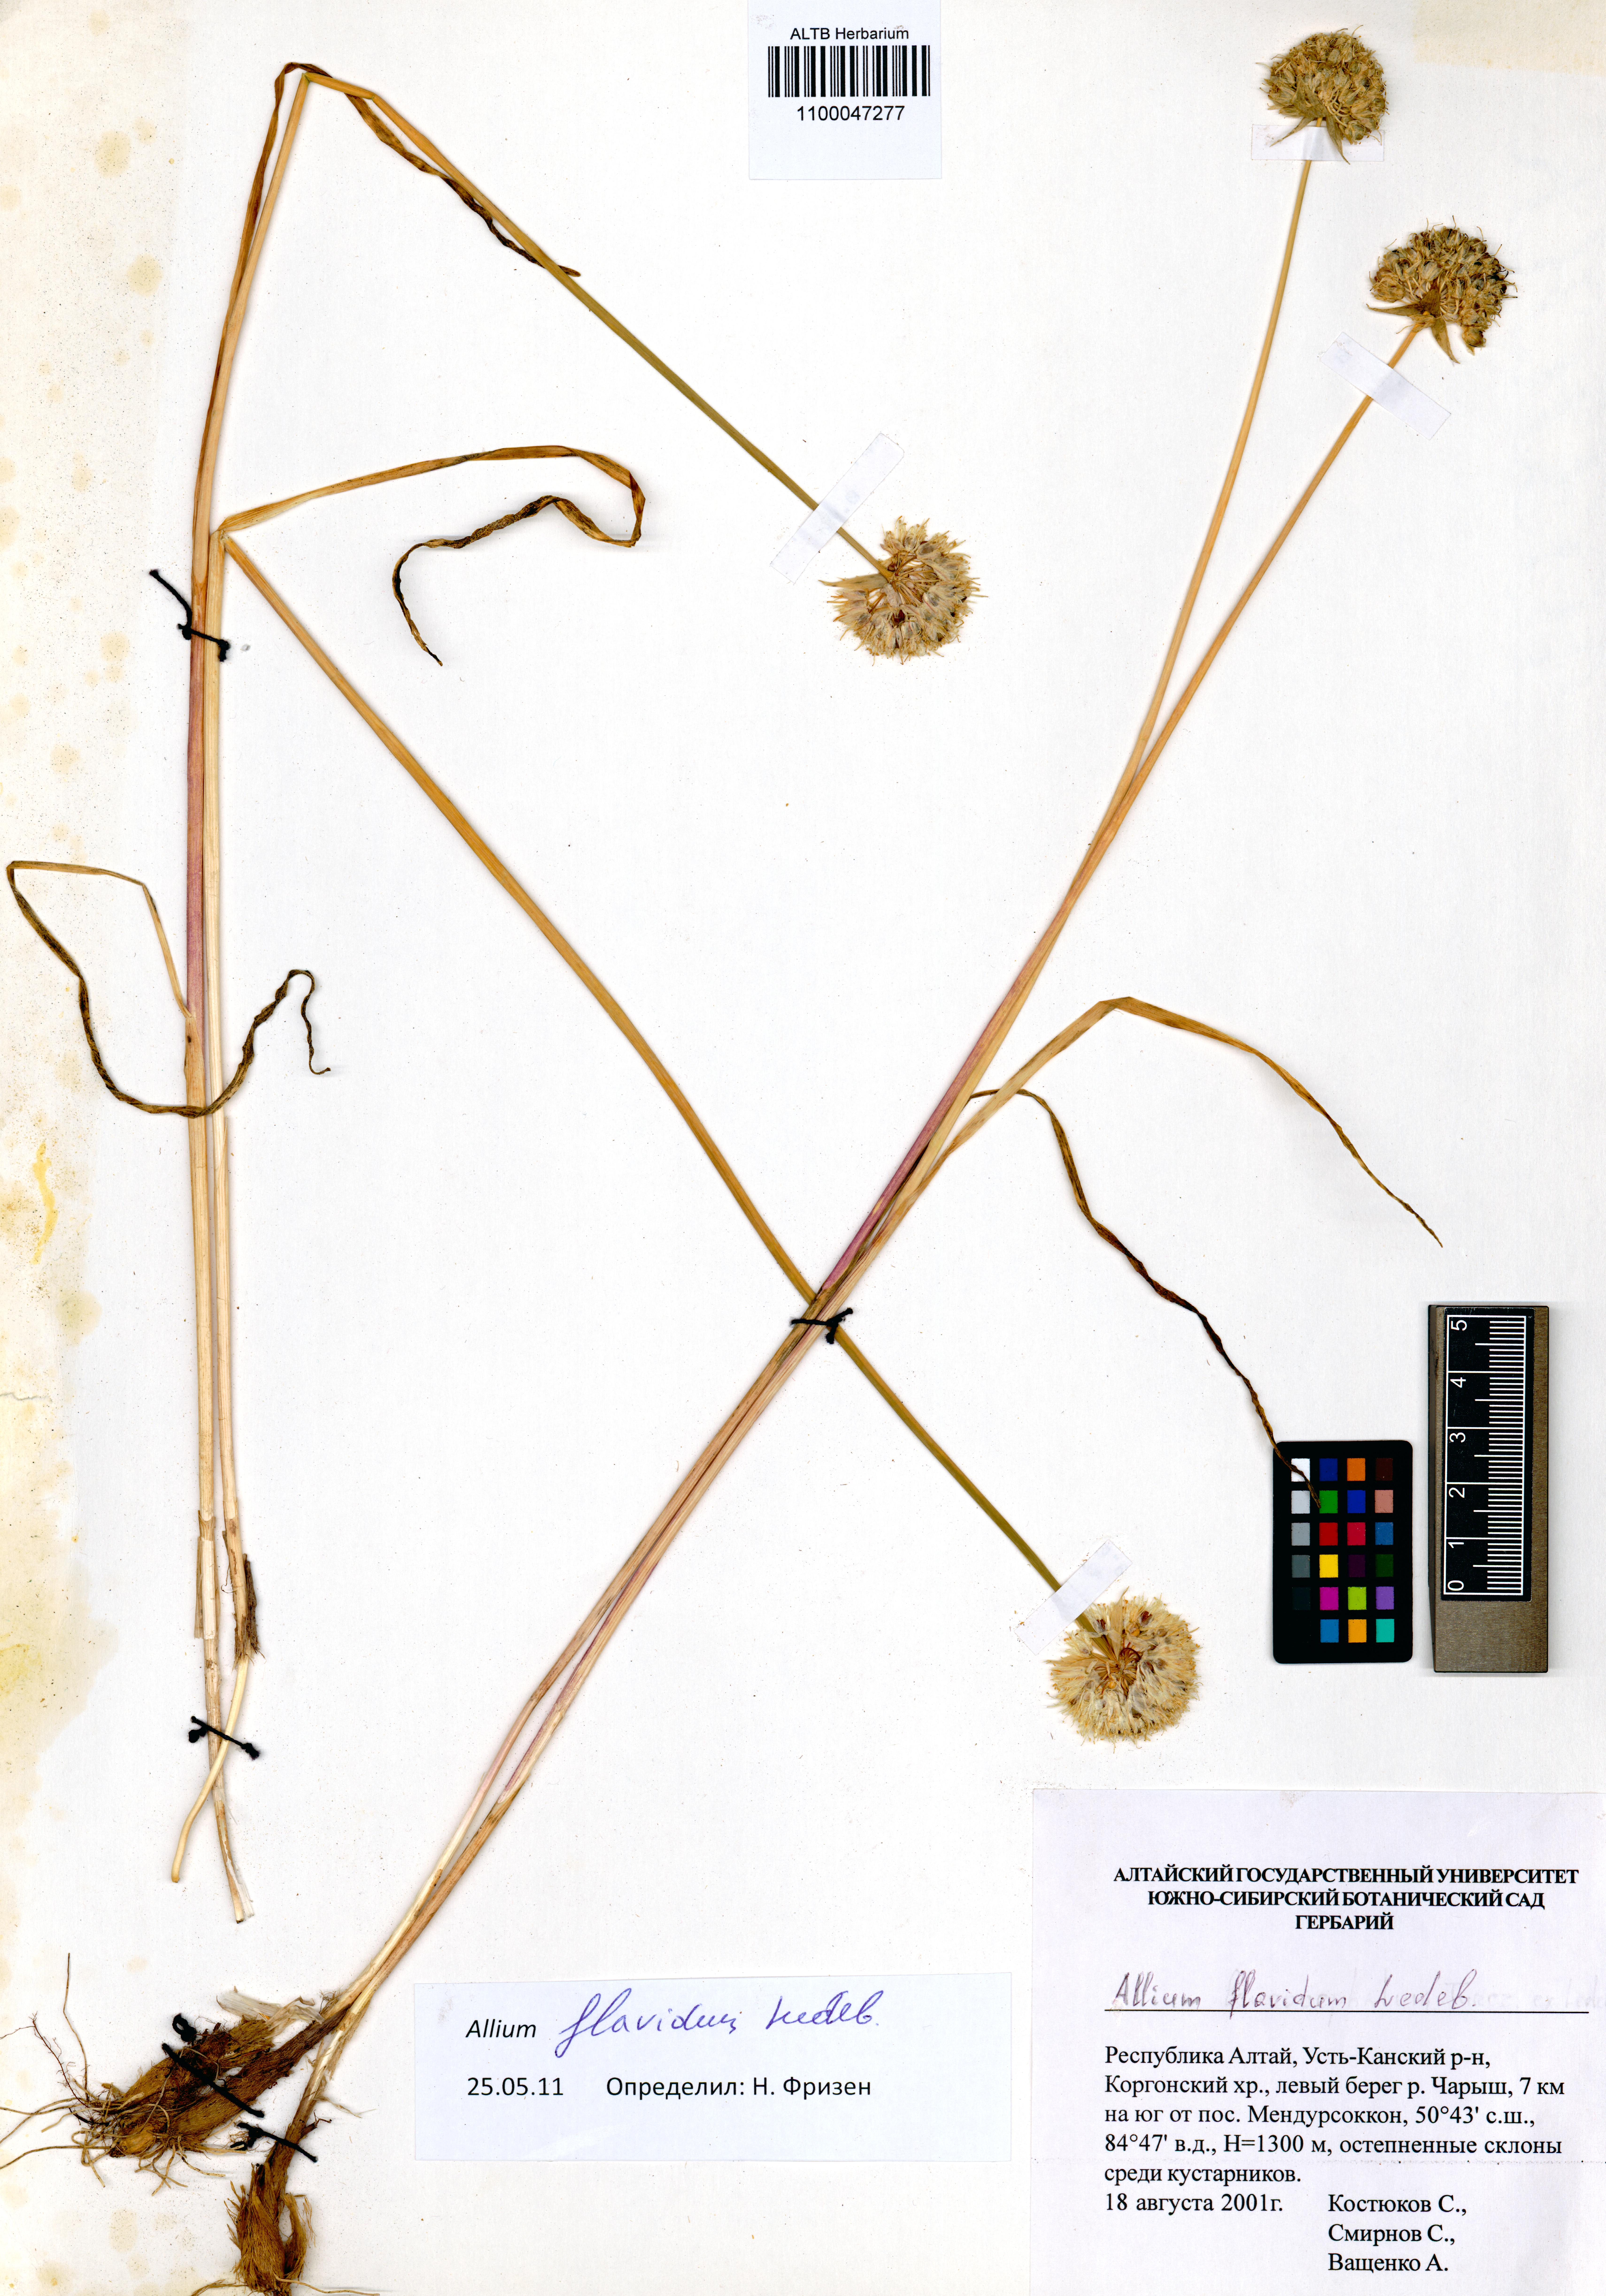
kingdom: Plantae
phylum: Tracheophyta
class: Liliopsida
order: Asparagales
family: Amaryllidaceae
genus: Allium
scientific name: Allium flavidum
